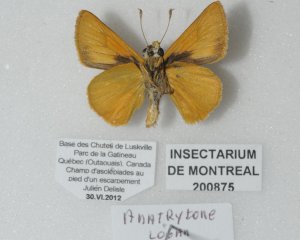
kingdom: Animalia
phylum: Arthropoda
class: Insecta
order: Lepidoptera
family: Hesperiidae
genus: Atrytone
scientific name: Atrytone delaware
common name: Delaware Skipper
